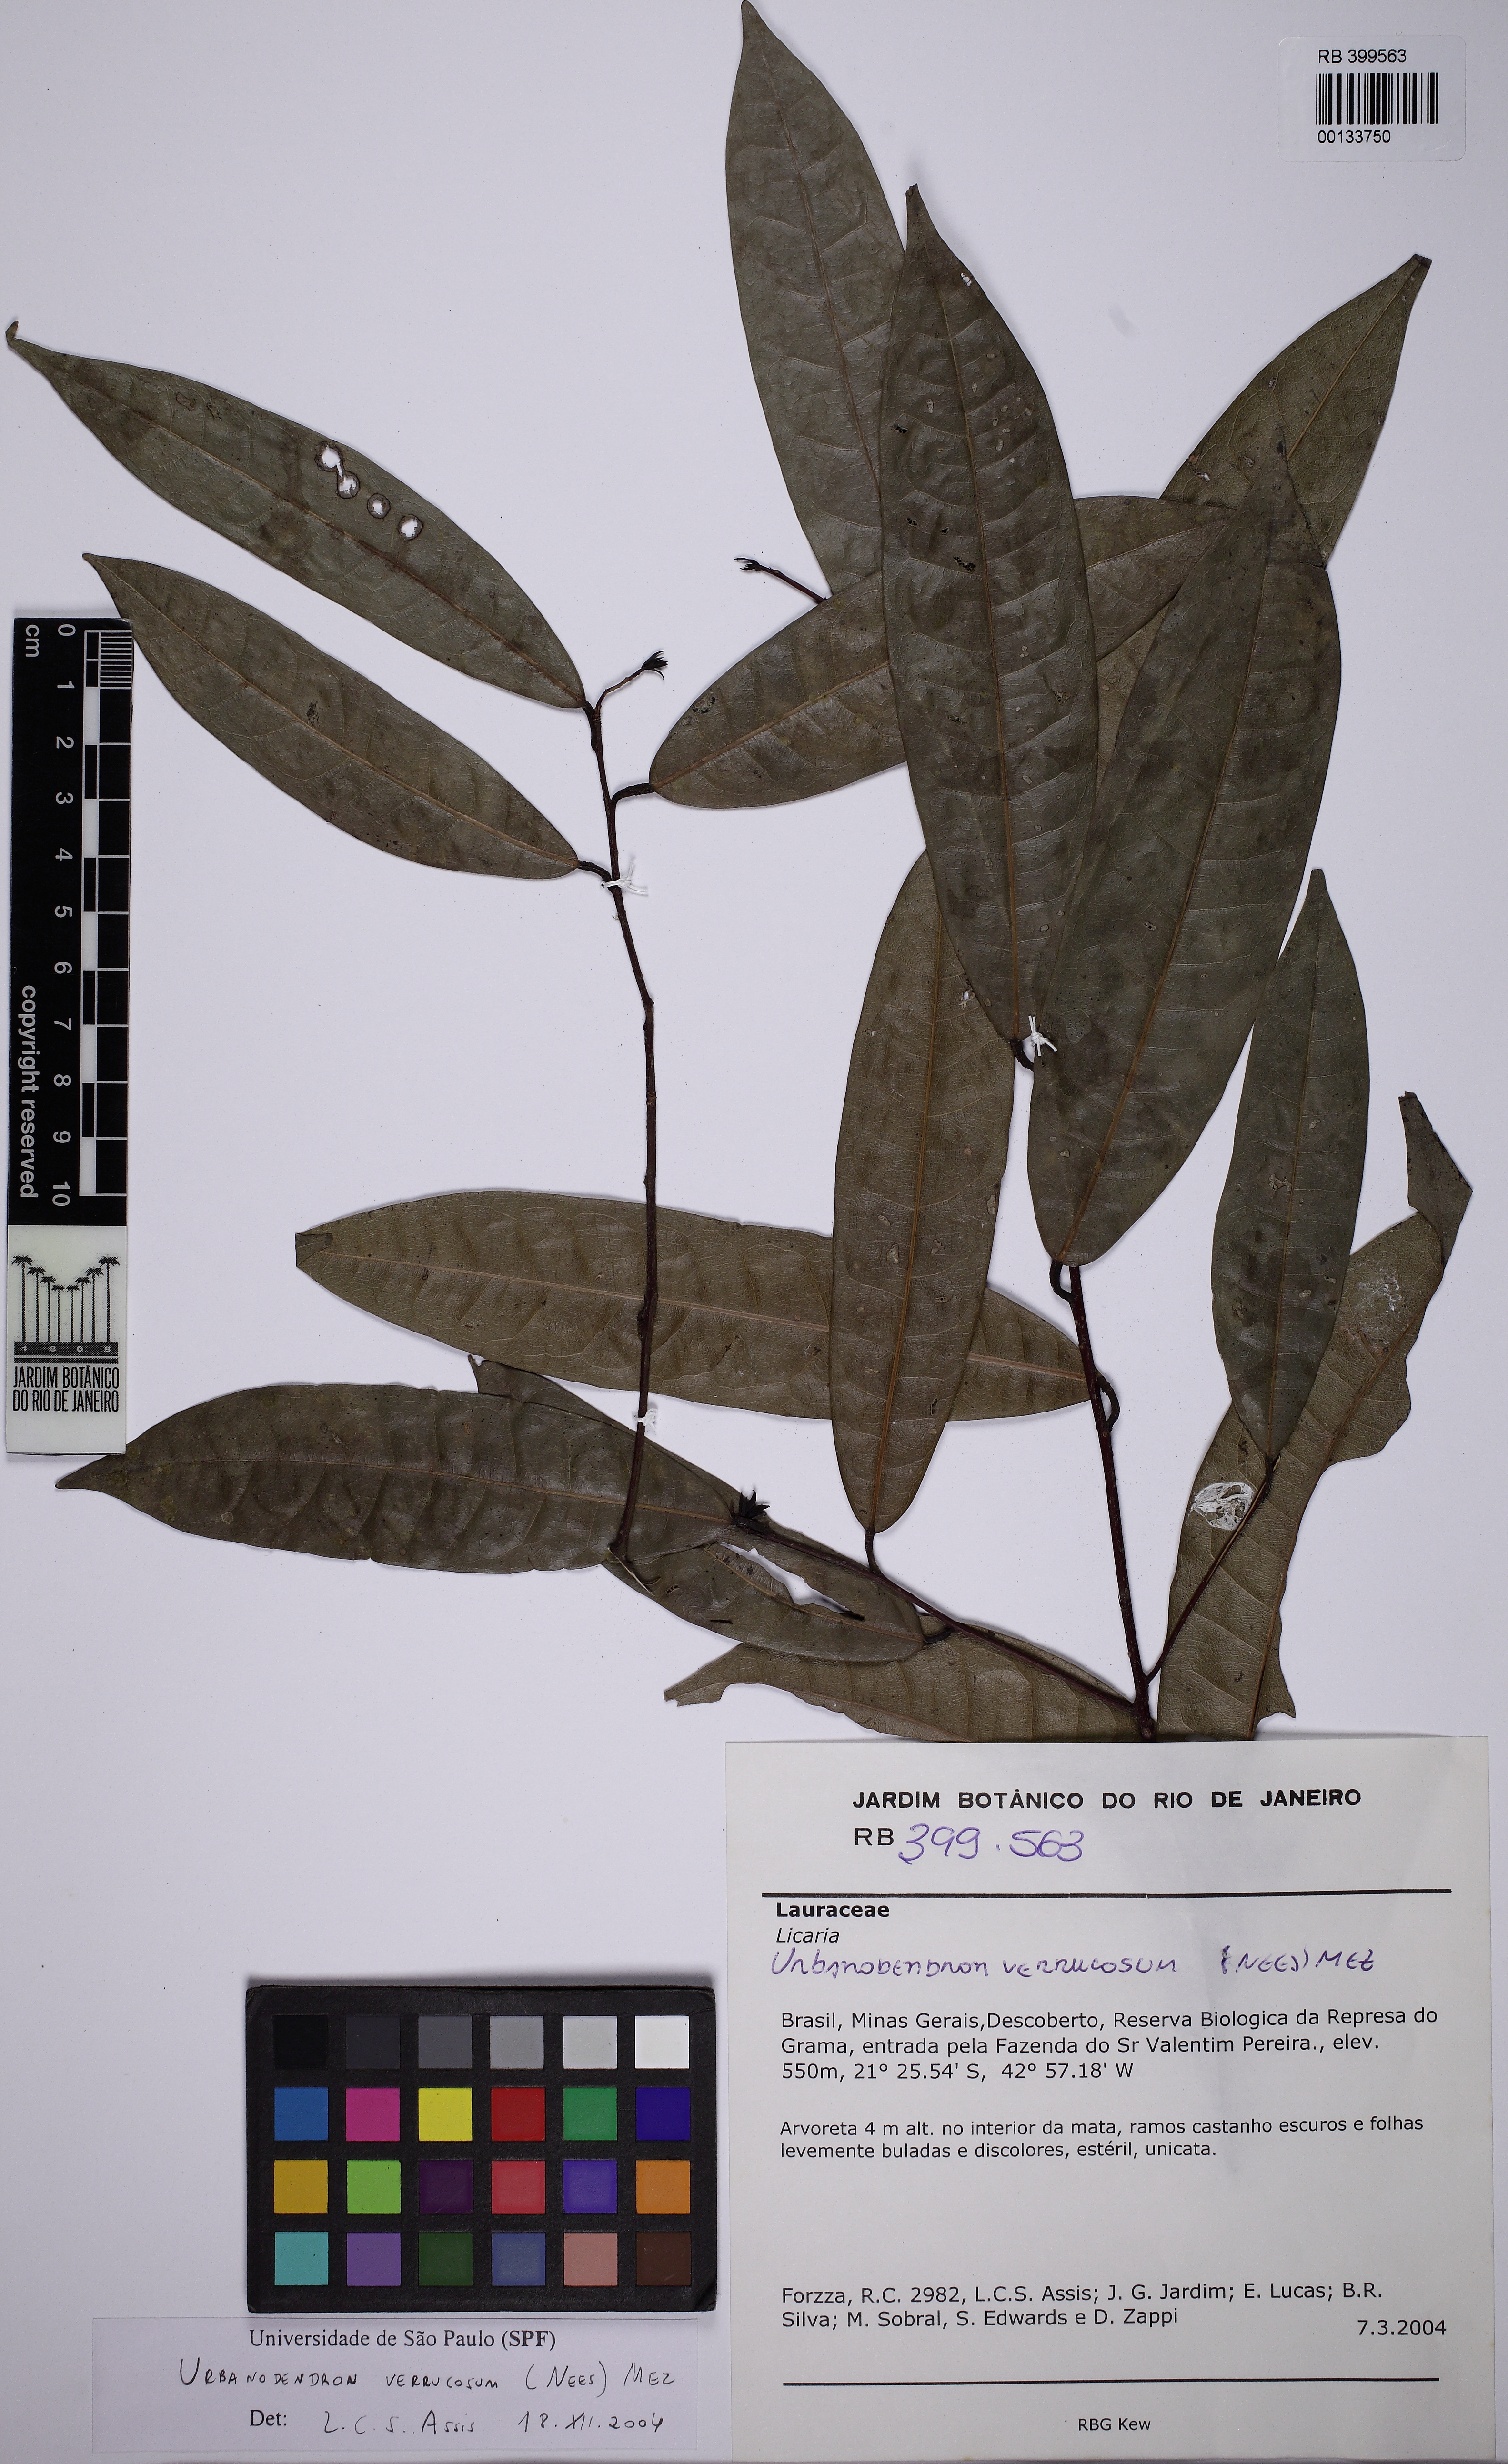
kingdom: Plantae
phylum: Tracheophyta
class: Magnoliopsida
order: Laurales
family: Lauraceae
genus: Urbanodendron
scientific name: Urbanodendron verrucosum
